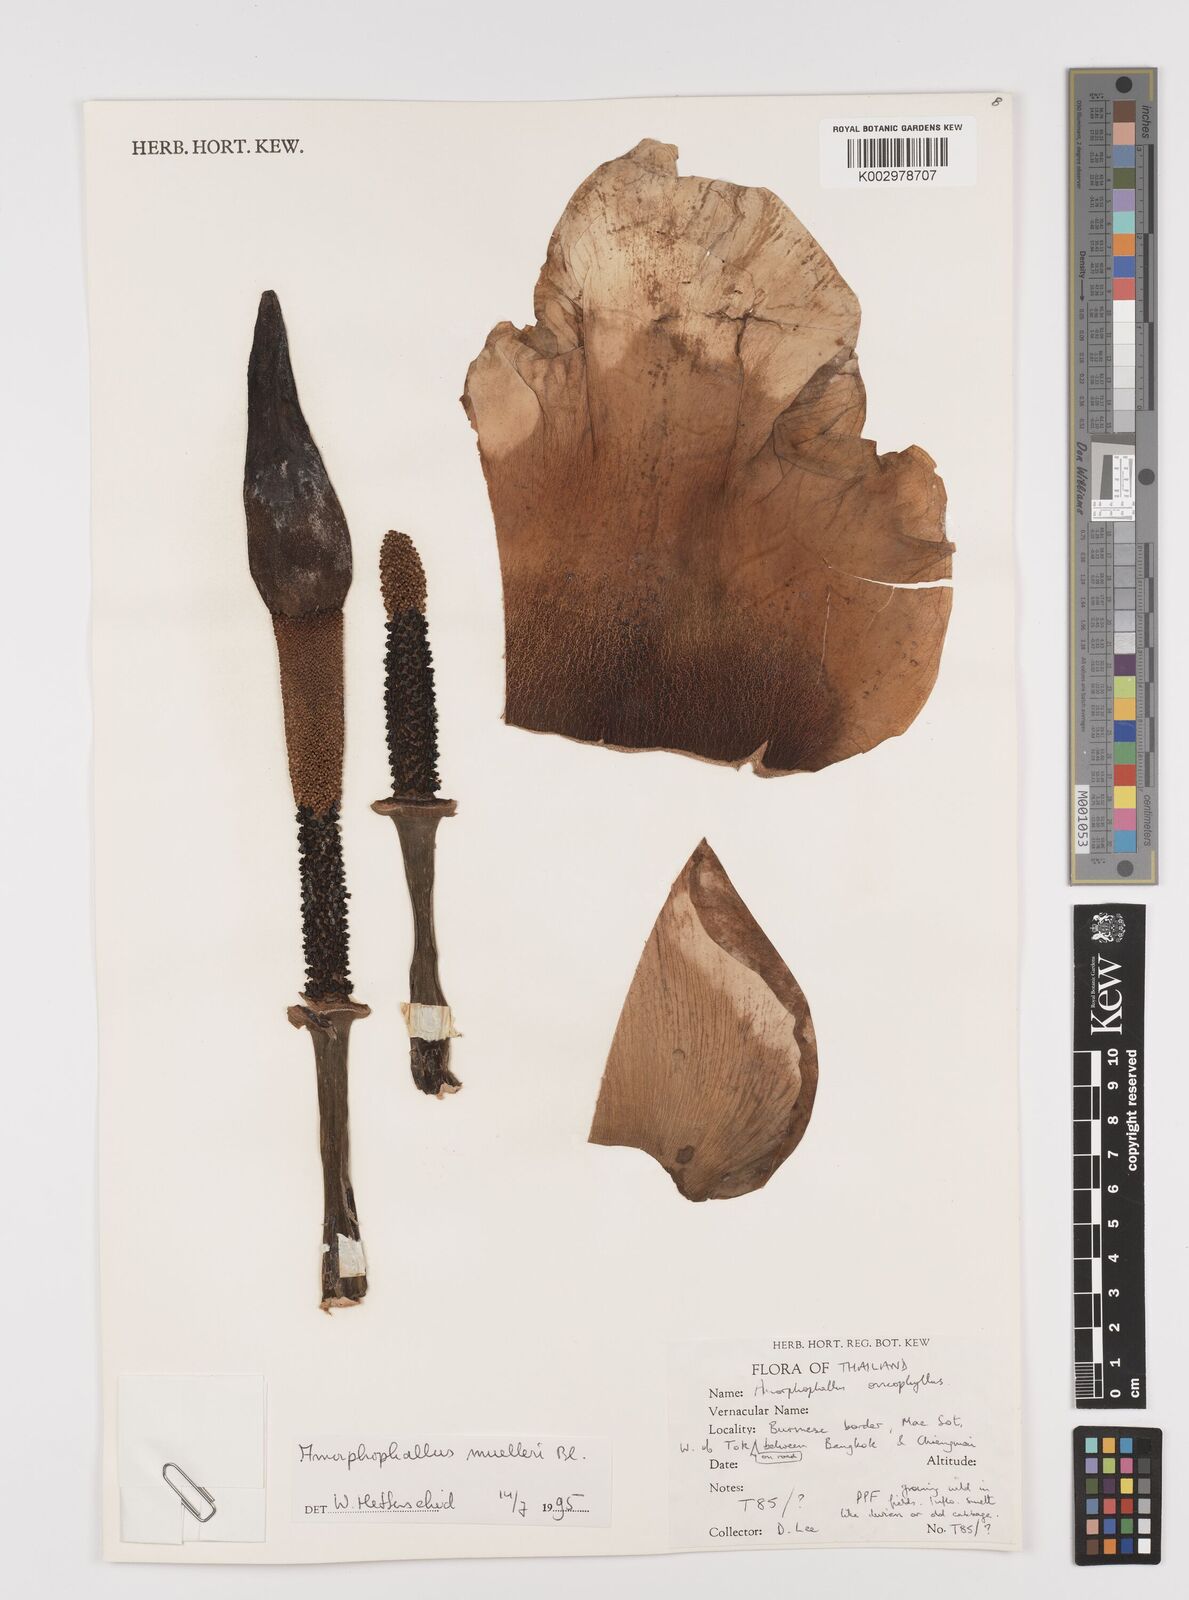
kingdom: Plantae
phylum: Tracheophyta
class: Liliopsida
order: Alismatales
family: Araceae
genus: Amorphophallus
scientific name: Amorphophallus muelleri
